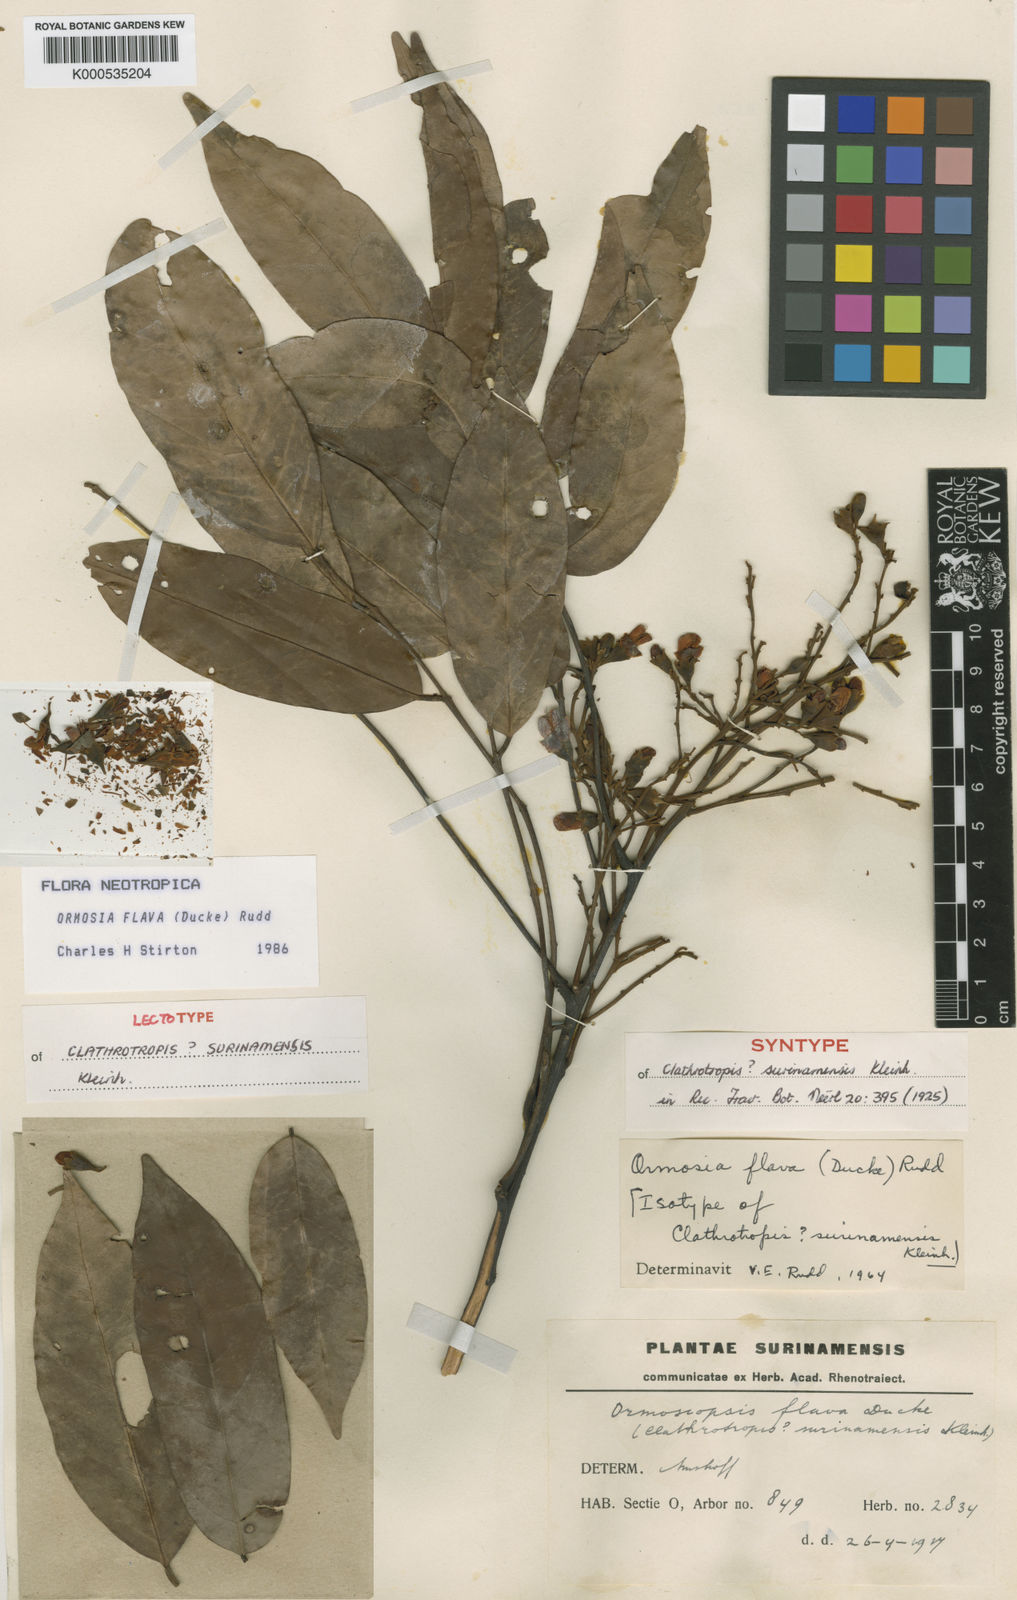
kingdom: Plantae
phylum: Tracheophyta
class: Magnoliopsida
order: Fabales
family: Fabaceae
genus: Ormosia
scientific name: Ormosia flava
